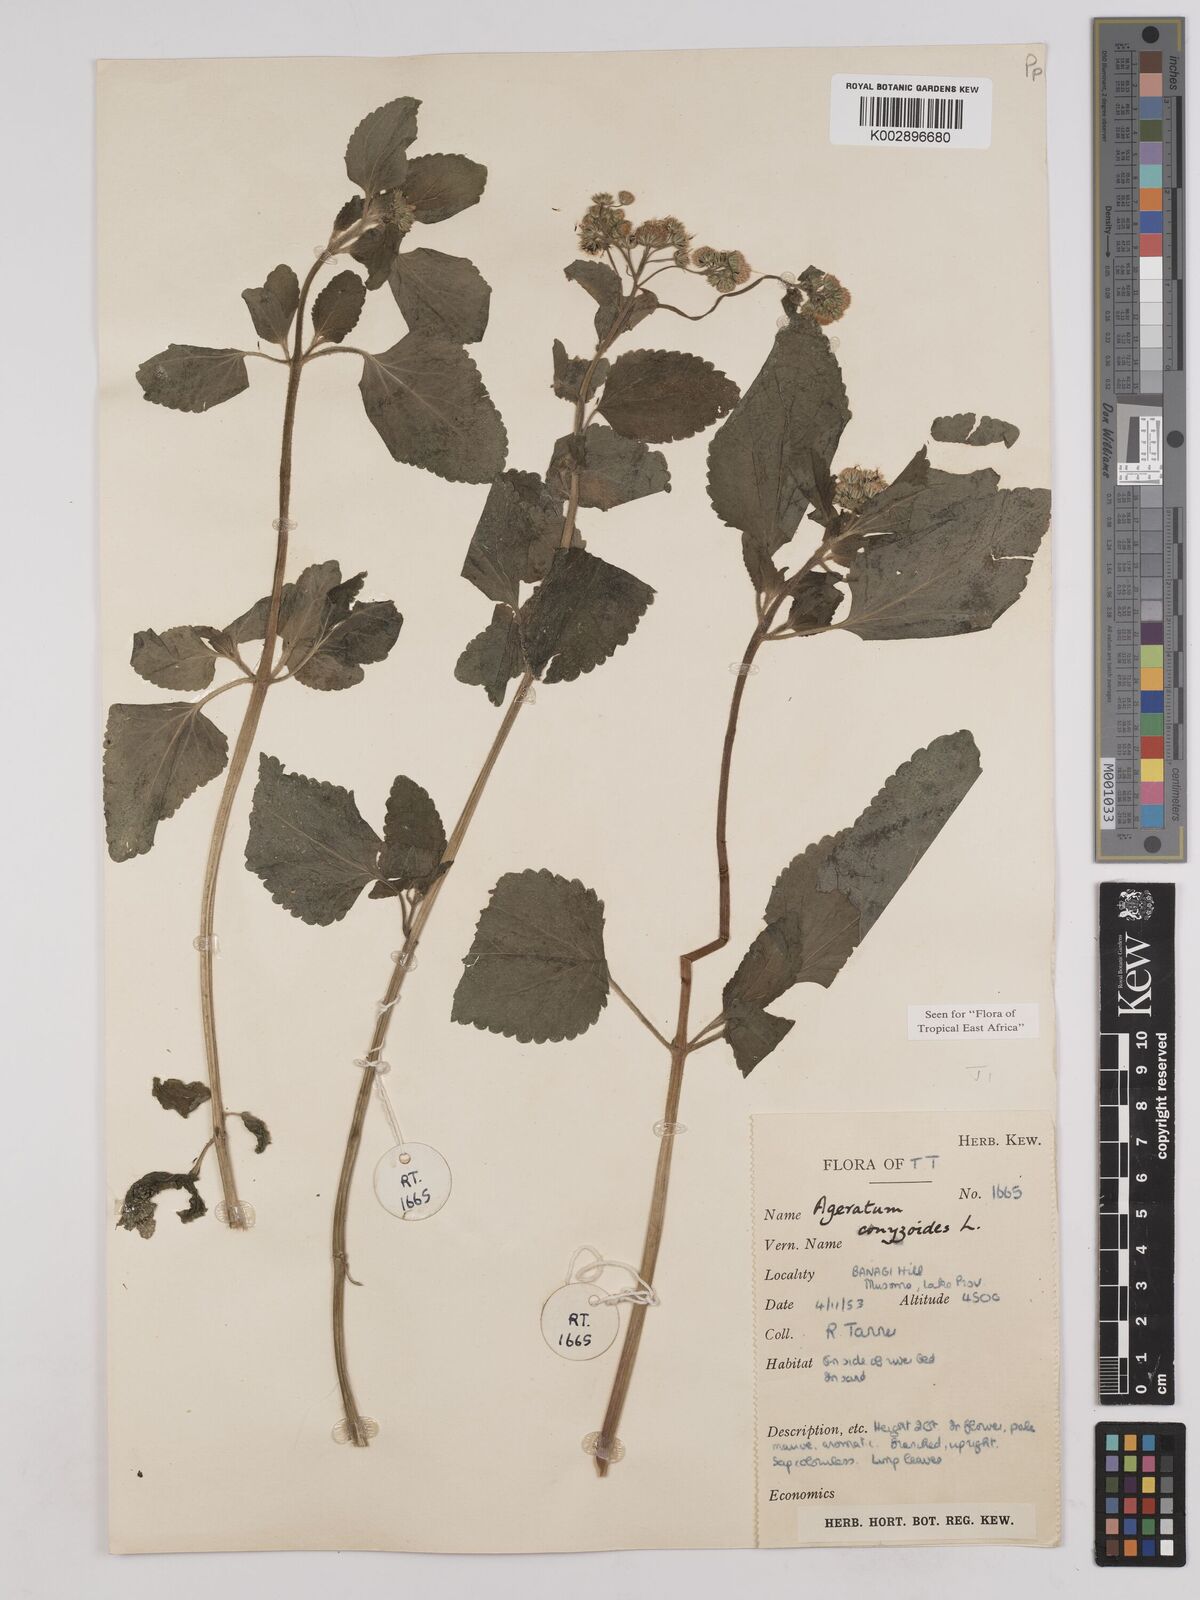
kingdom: Plantae
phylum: Tracheophyta
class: Magnoliopsida
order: Asterales
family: Asteraceae
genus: Ageratum
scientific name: Ageratum conyzoides
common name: Tropical whiteweed
